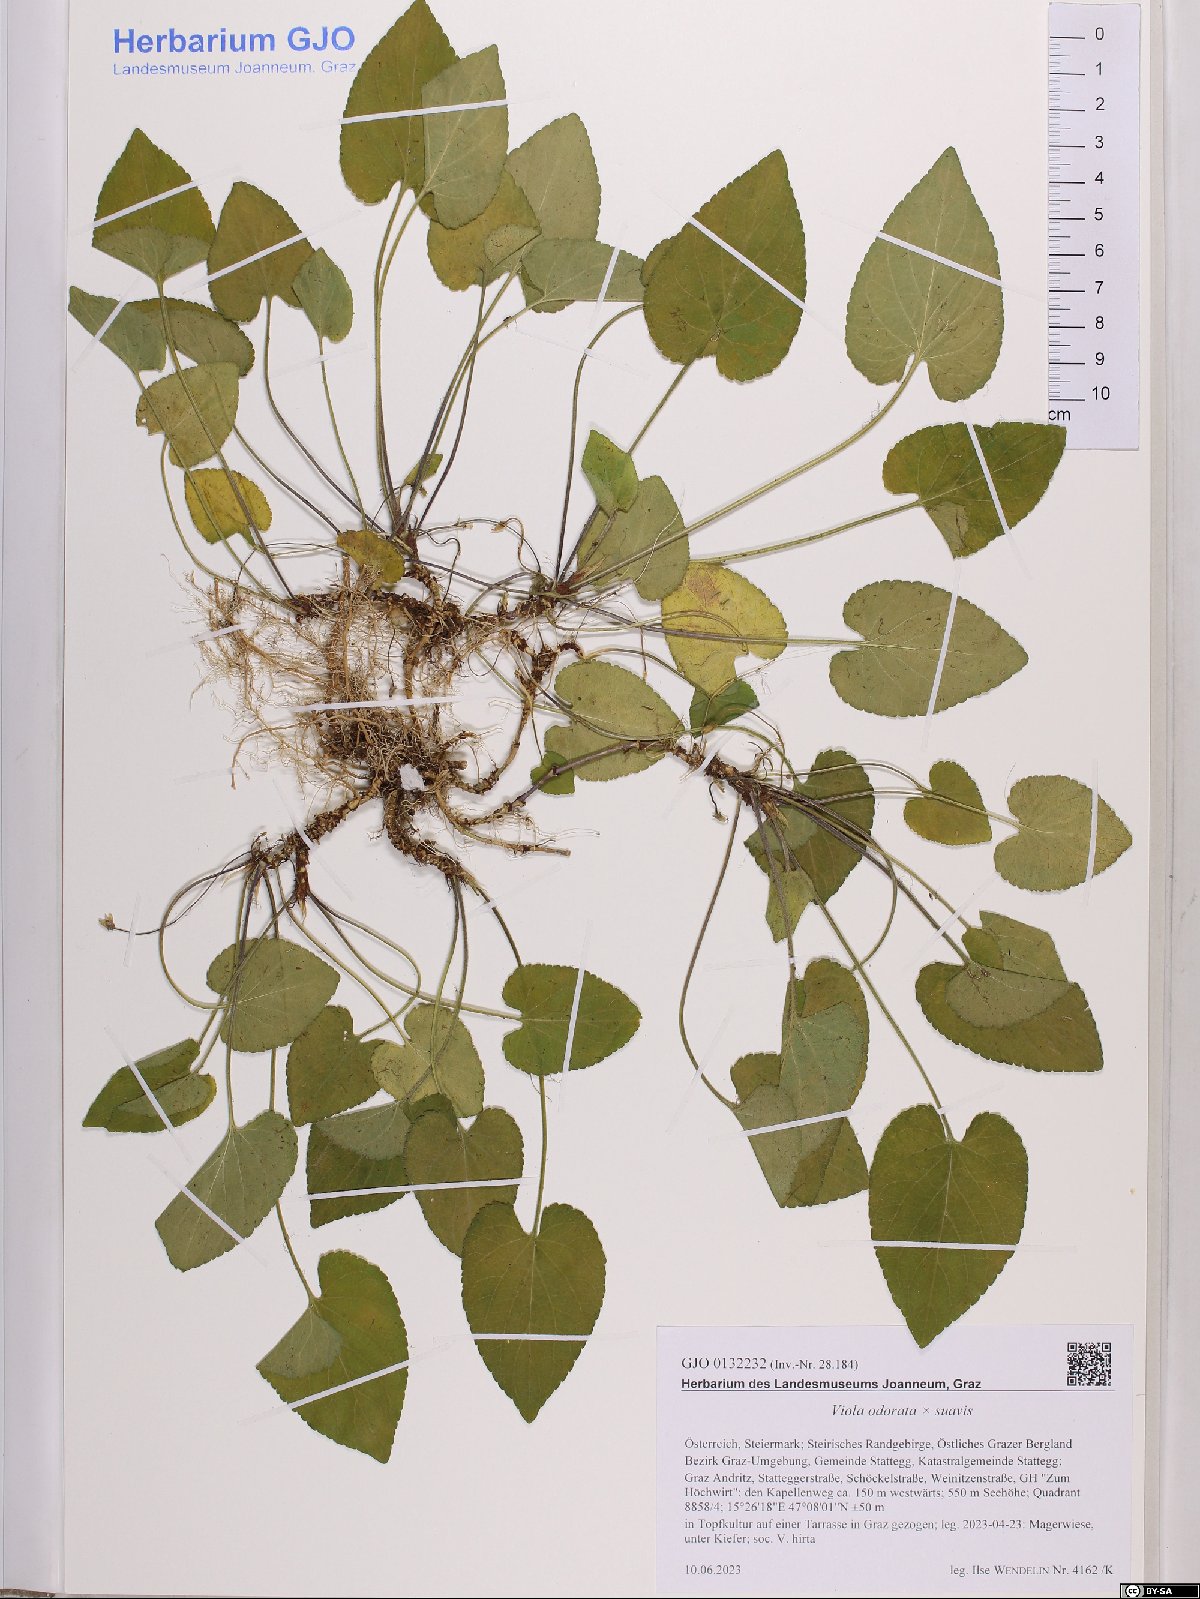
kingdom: Plantae
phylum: Tracheophyta
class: Magnoliopsida
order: Malpighiales
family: Violaceae
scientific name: Violaceae
